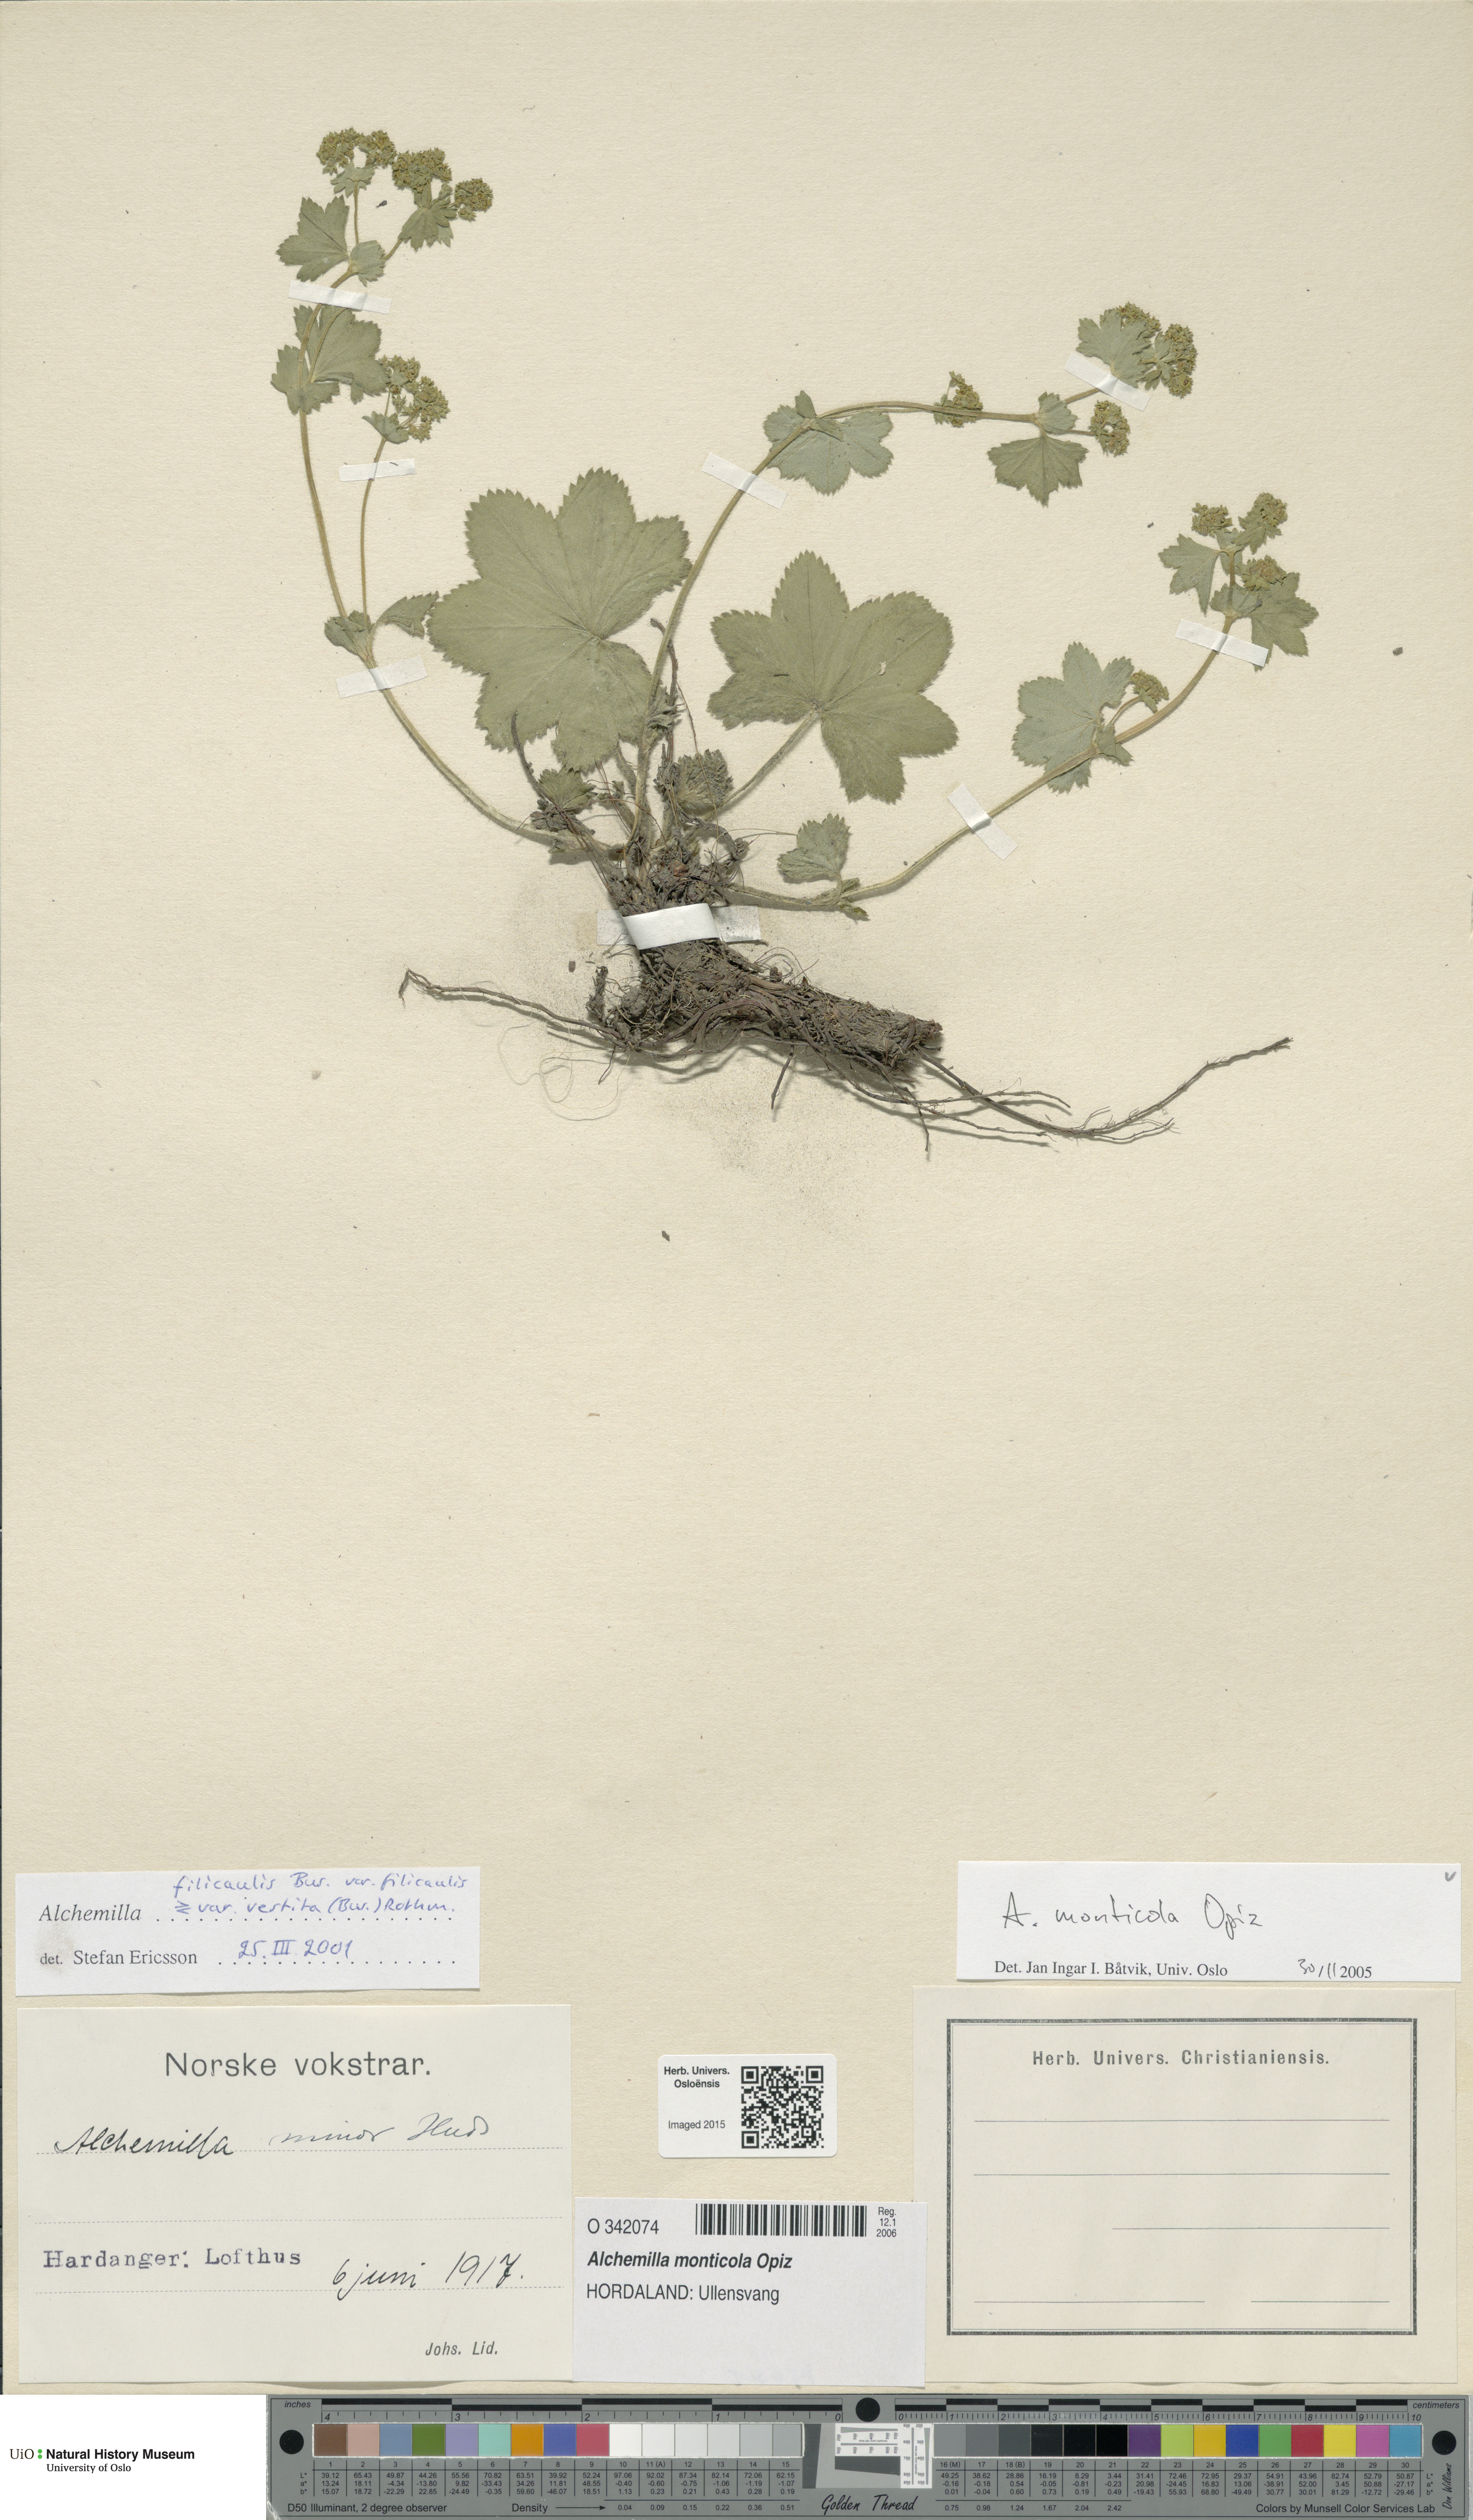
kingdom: Plantae
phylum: Tracheophyta
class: Magnoliopsida
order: Rosales
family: Rosaceae
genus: Alchemilla
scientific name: Alchemilla monticola
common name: Hairy lady's mantle
